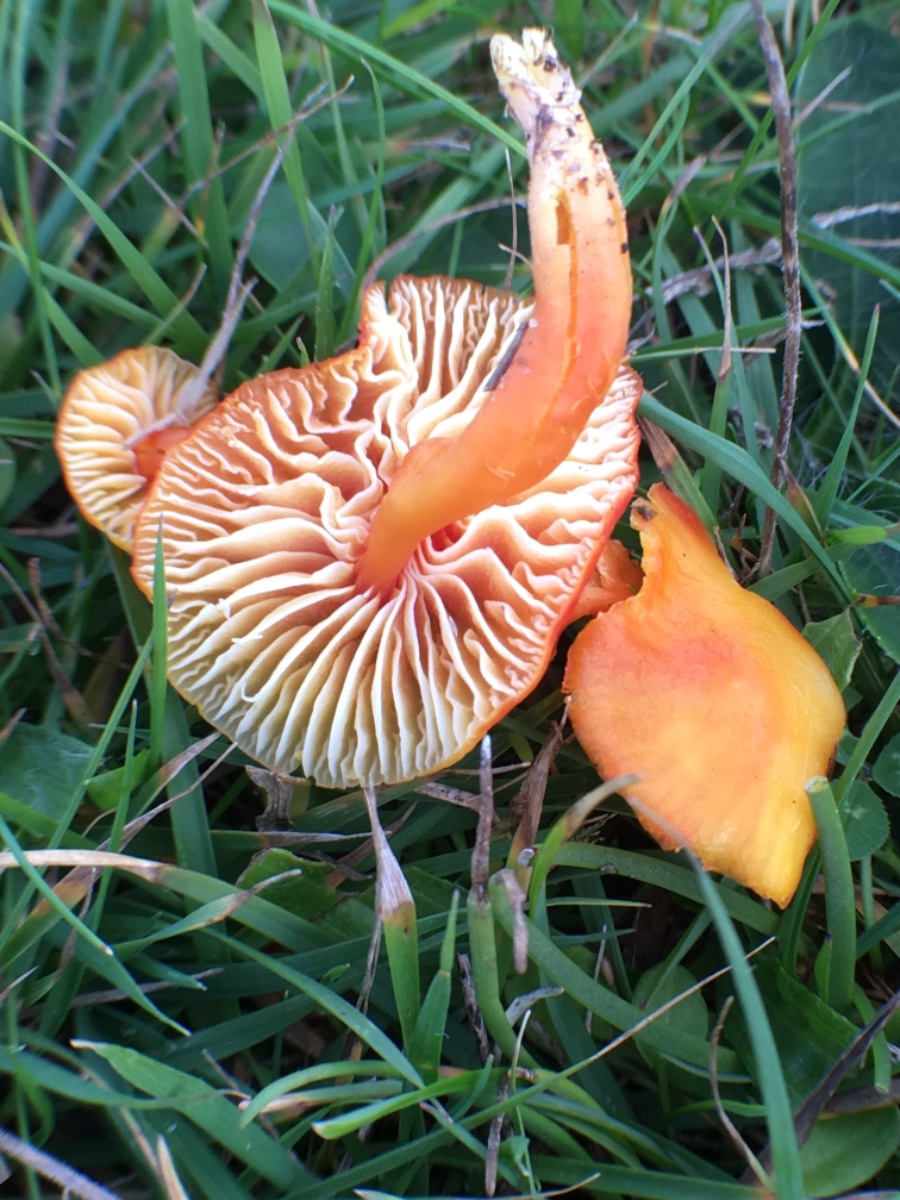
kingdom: Fungi
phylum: Basidiomycota
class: Agaricomycetes
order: Agaricales
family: Hygrophoraceae
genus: Hygrocybe
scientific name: Hygrocybe miniata
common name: mønje-vokshat
